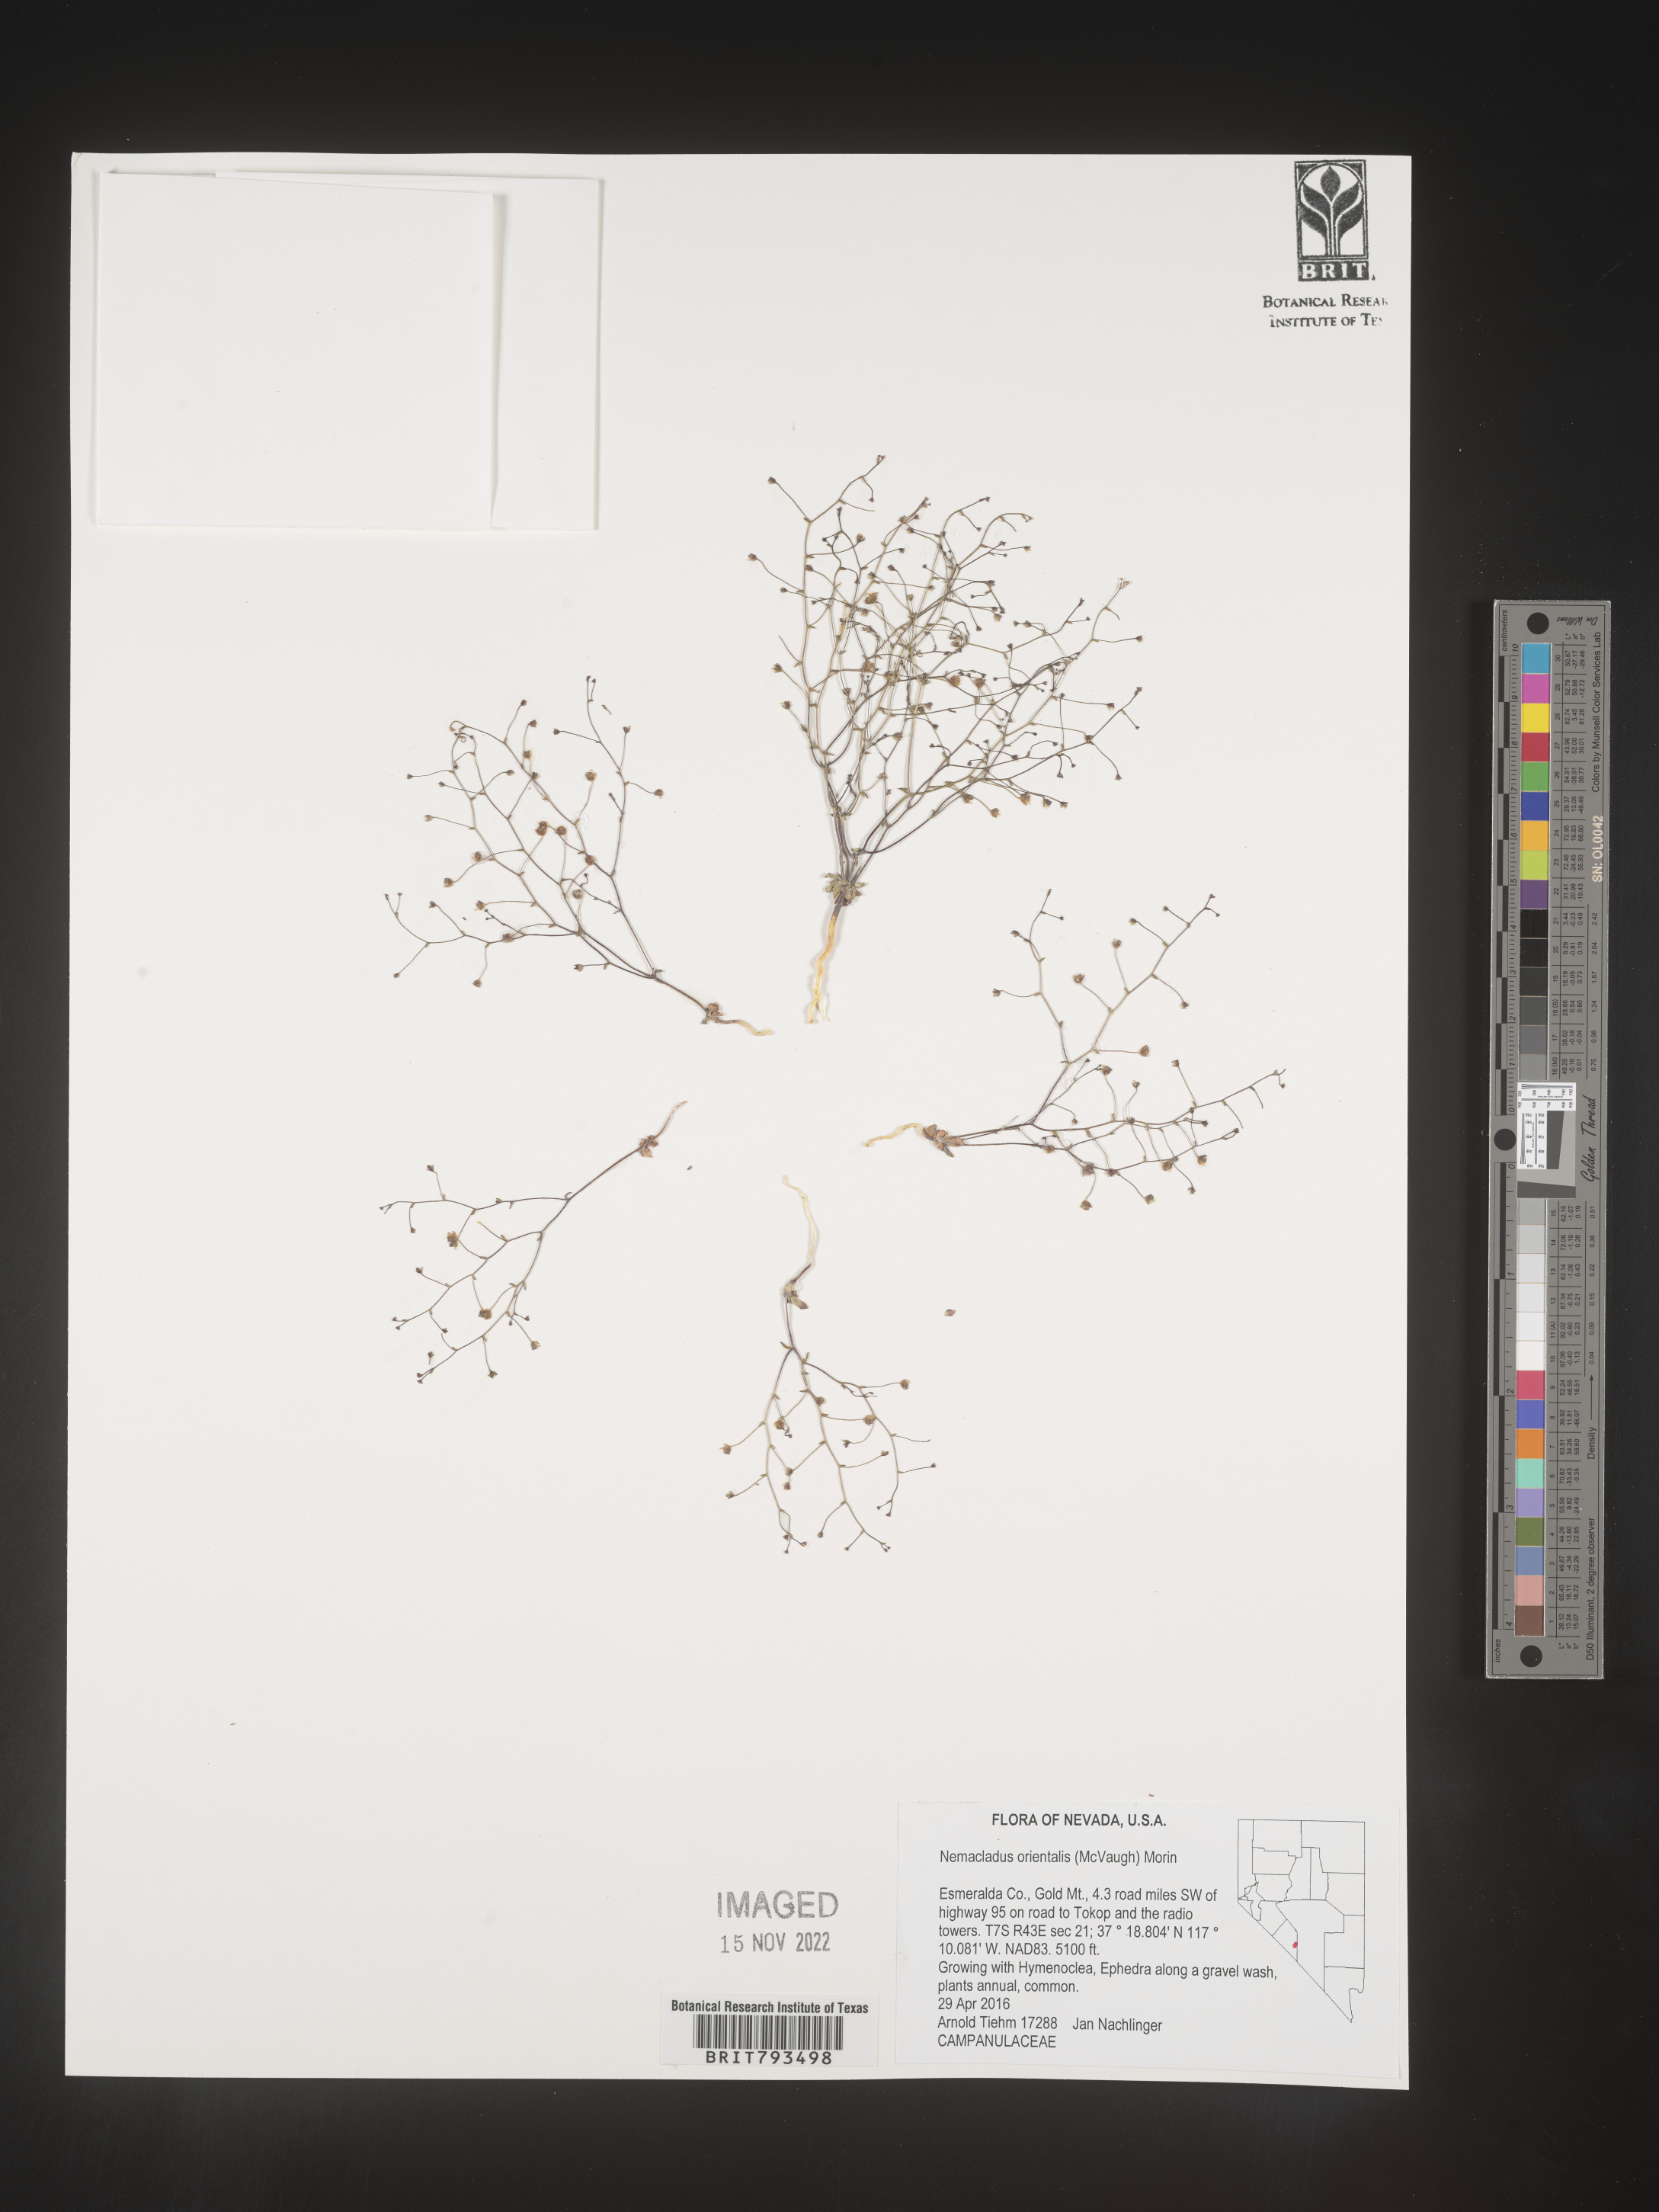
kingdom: Plantae
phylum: Tracheophyta
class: Magnoliopsida
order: Asterales
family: Campanulaceae
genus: Nemacladus
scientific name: Nemacladus orientalis
